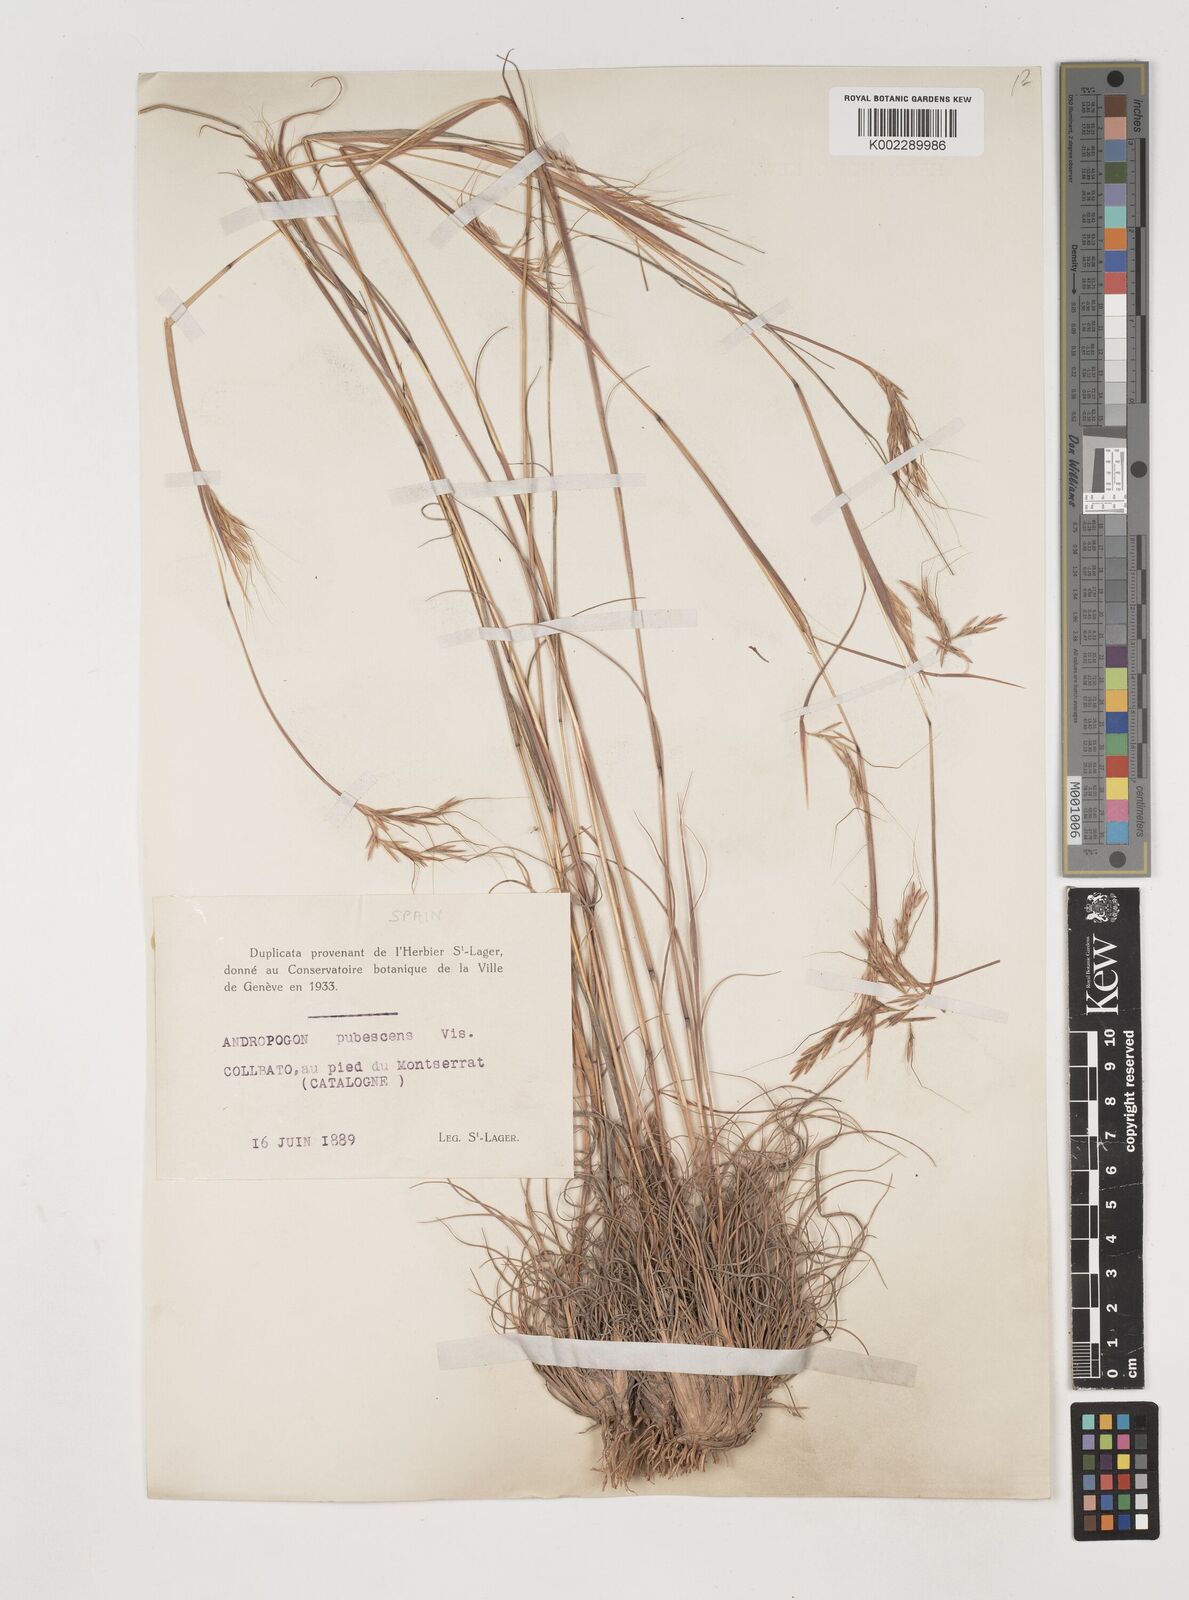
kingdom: Plantae
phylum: Tracheophyta
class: Liliopsida
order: Poales
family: Poaceae
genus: Hyparrhenia
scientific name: Hyparrhenia hirta
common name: Thatching grass
